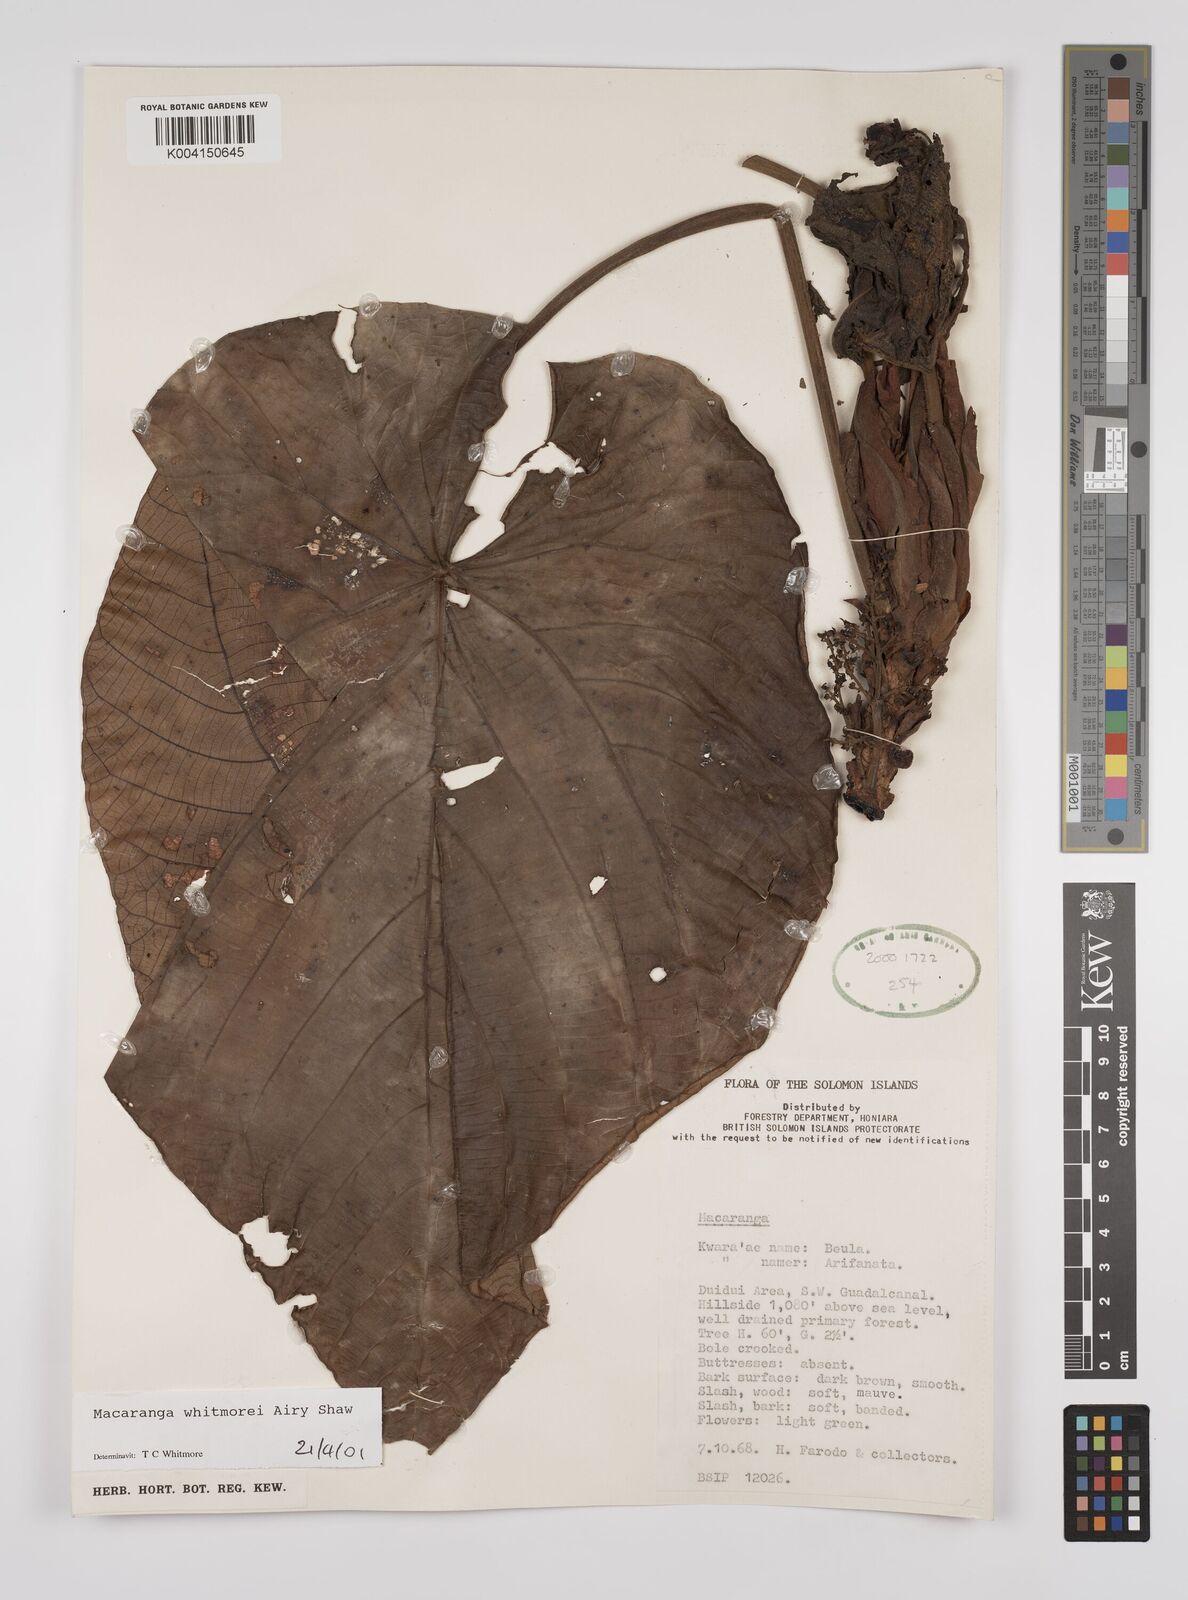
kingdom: Plantae
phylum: Tracheophyta
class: Magnoliopsida
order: Malpighiales
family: Euphorbiaceae
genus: Macaranga
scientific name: Macaranga whitmorei
